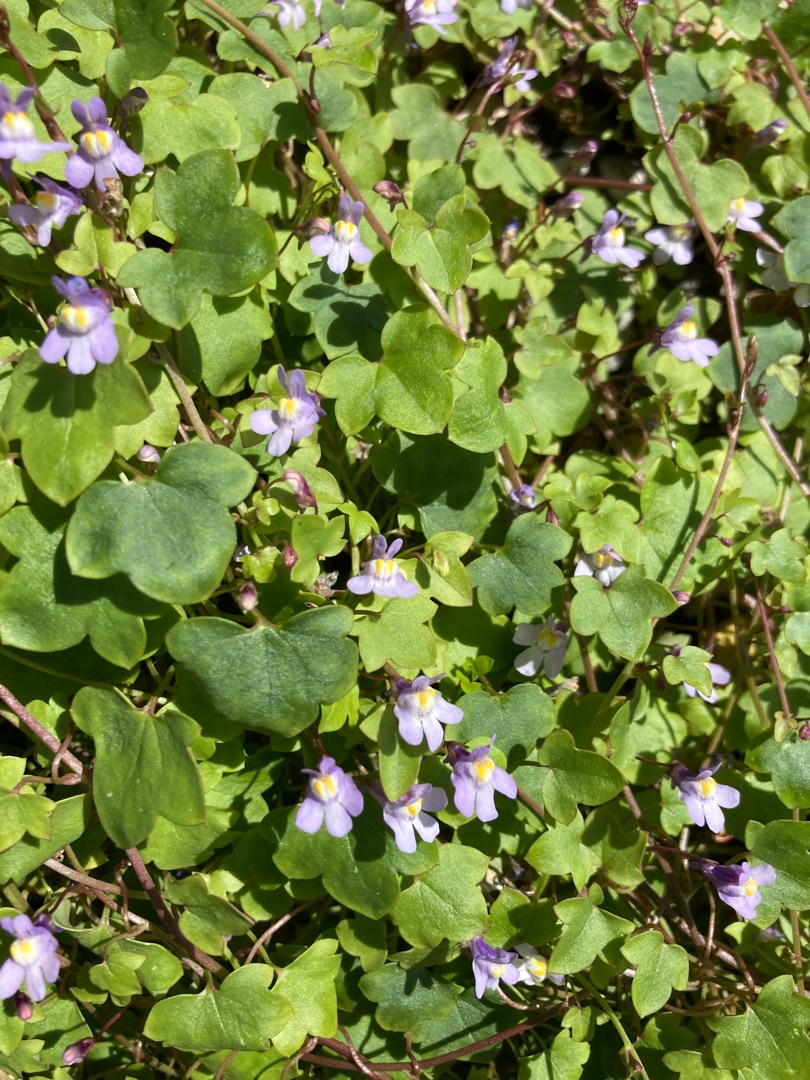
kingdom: Plantae
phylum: Tracheophyta
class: Magnoliopsida
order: Lamiales
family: Plantaginaceae
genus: Cymbalaria
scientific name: Cymbalaria muralis
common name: Vedbend-torskemund
